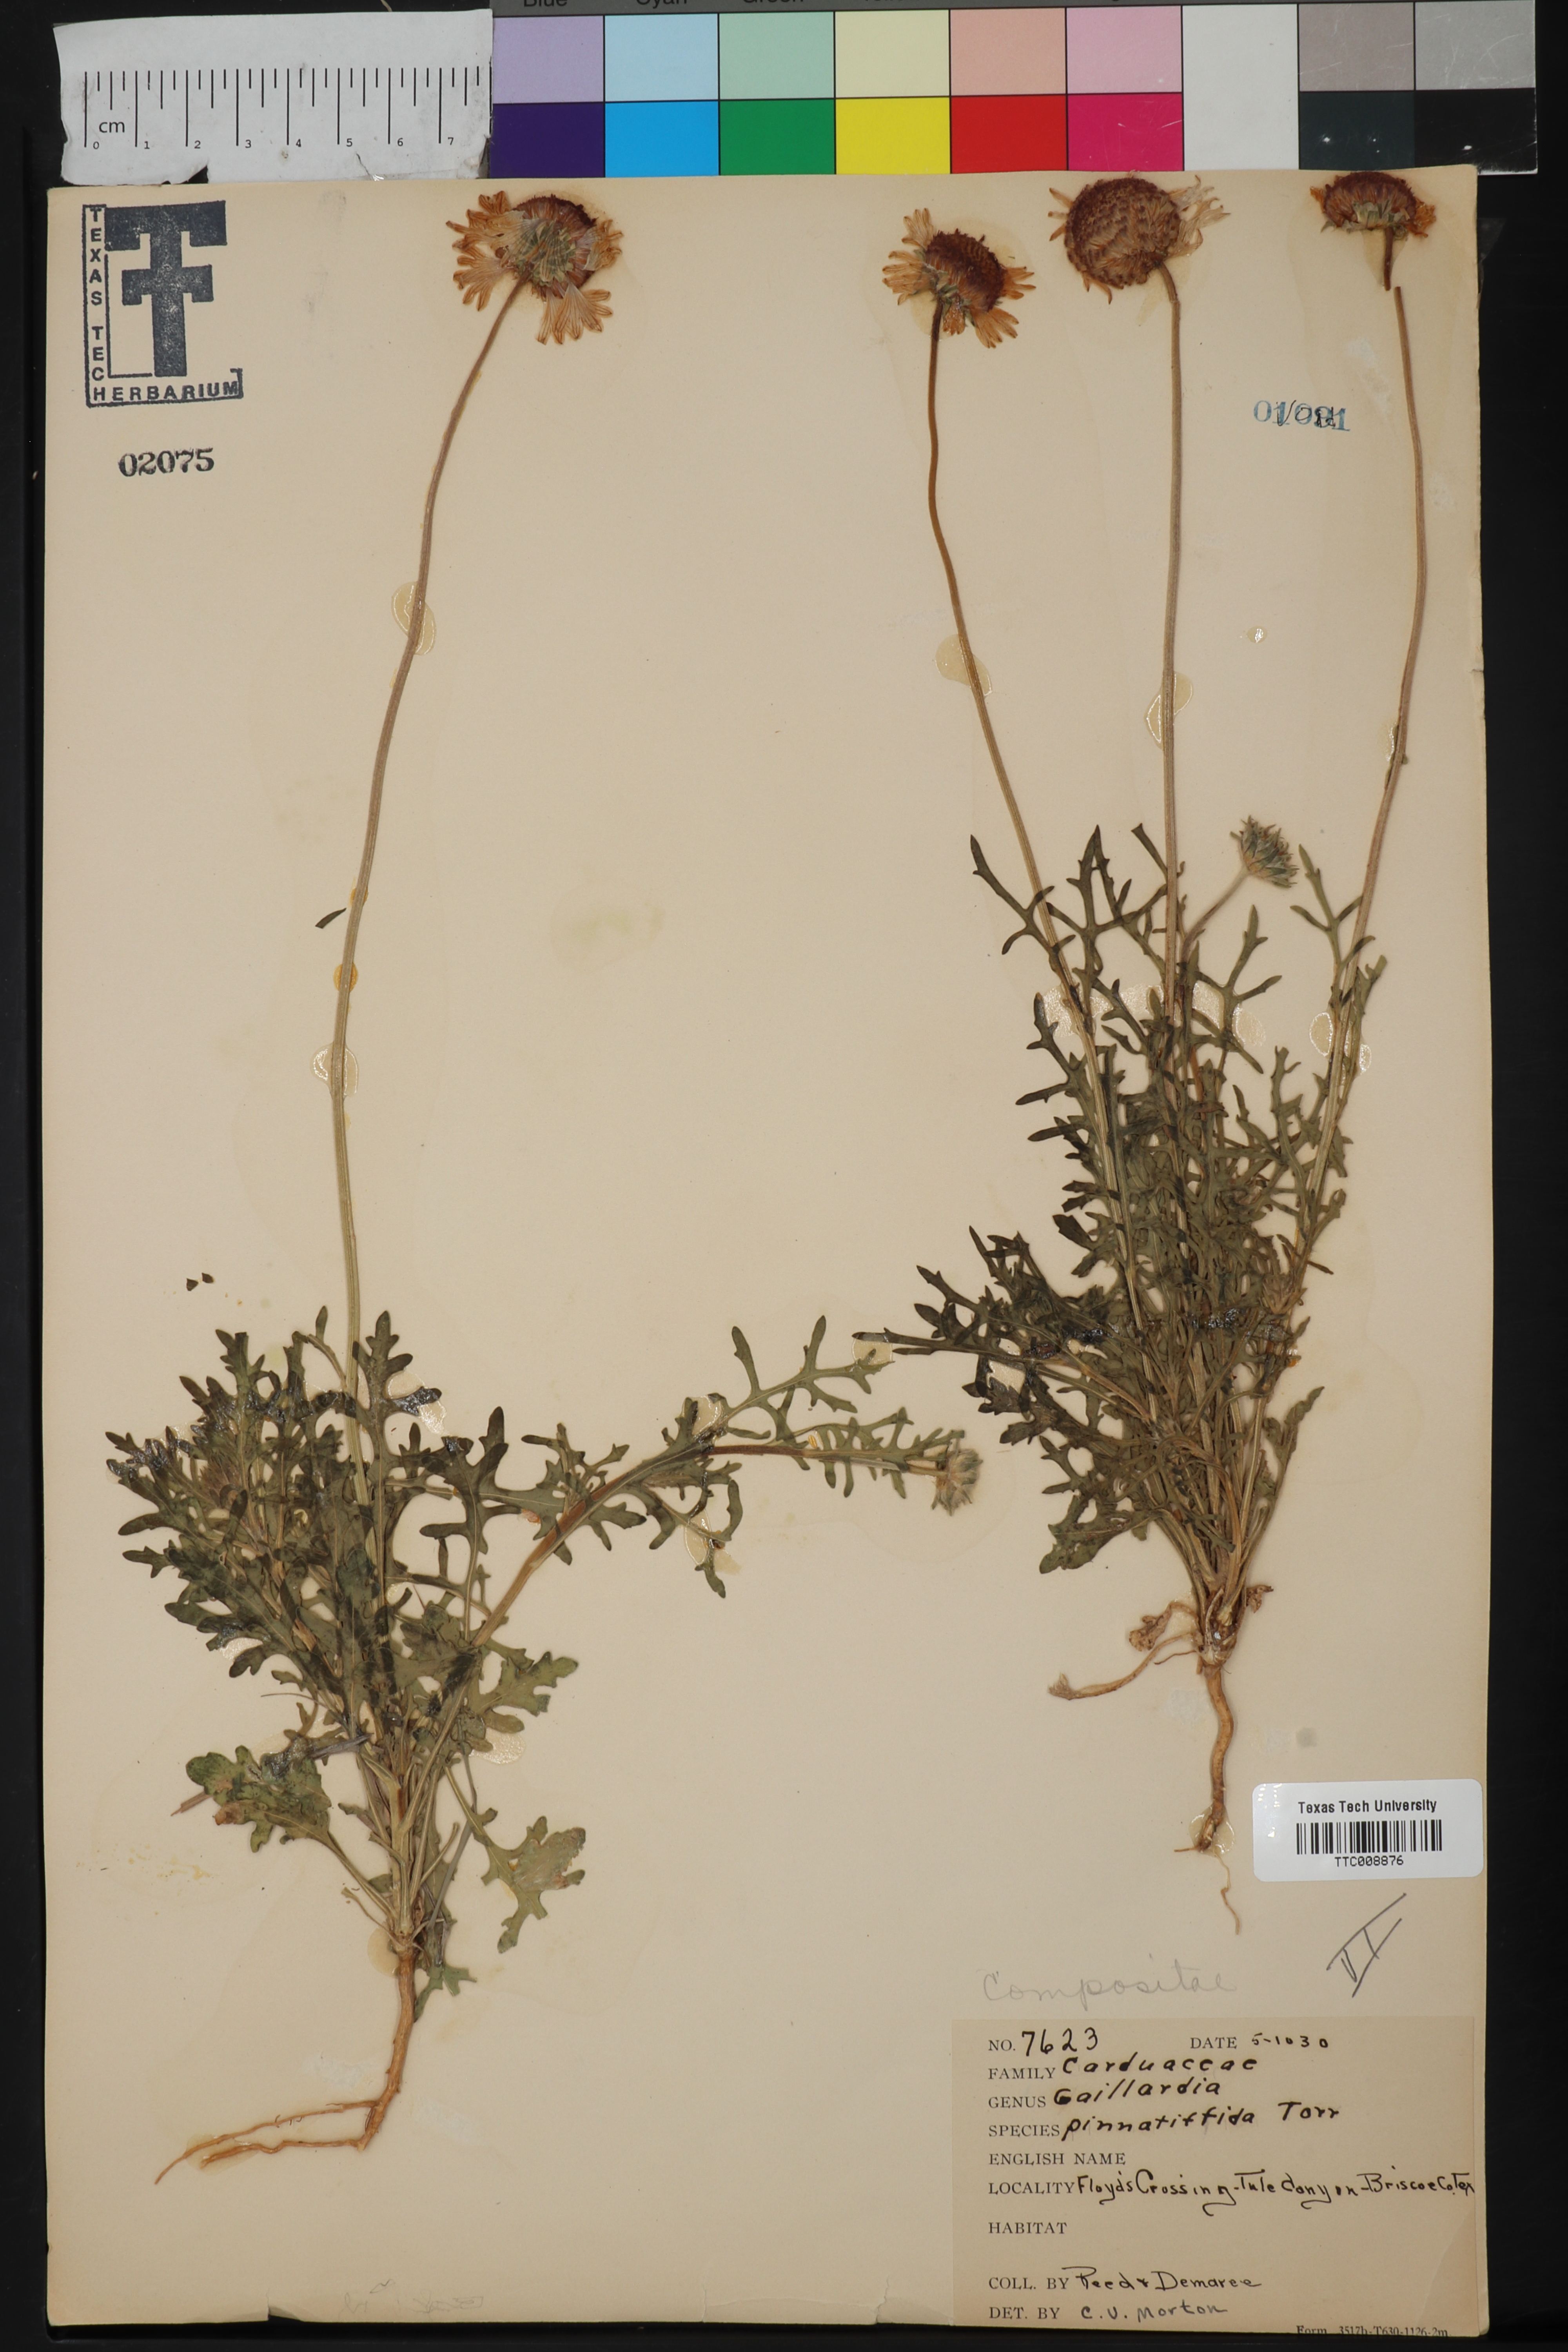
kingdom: Plantae
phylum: Tracheophyta
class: Magnoliopsida
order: Asterales
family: Asteraceae
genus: Gaillardia
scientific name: Gaillardia pinnatifida
